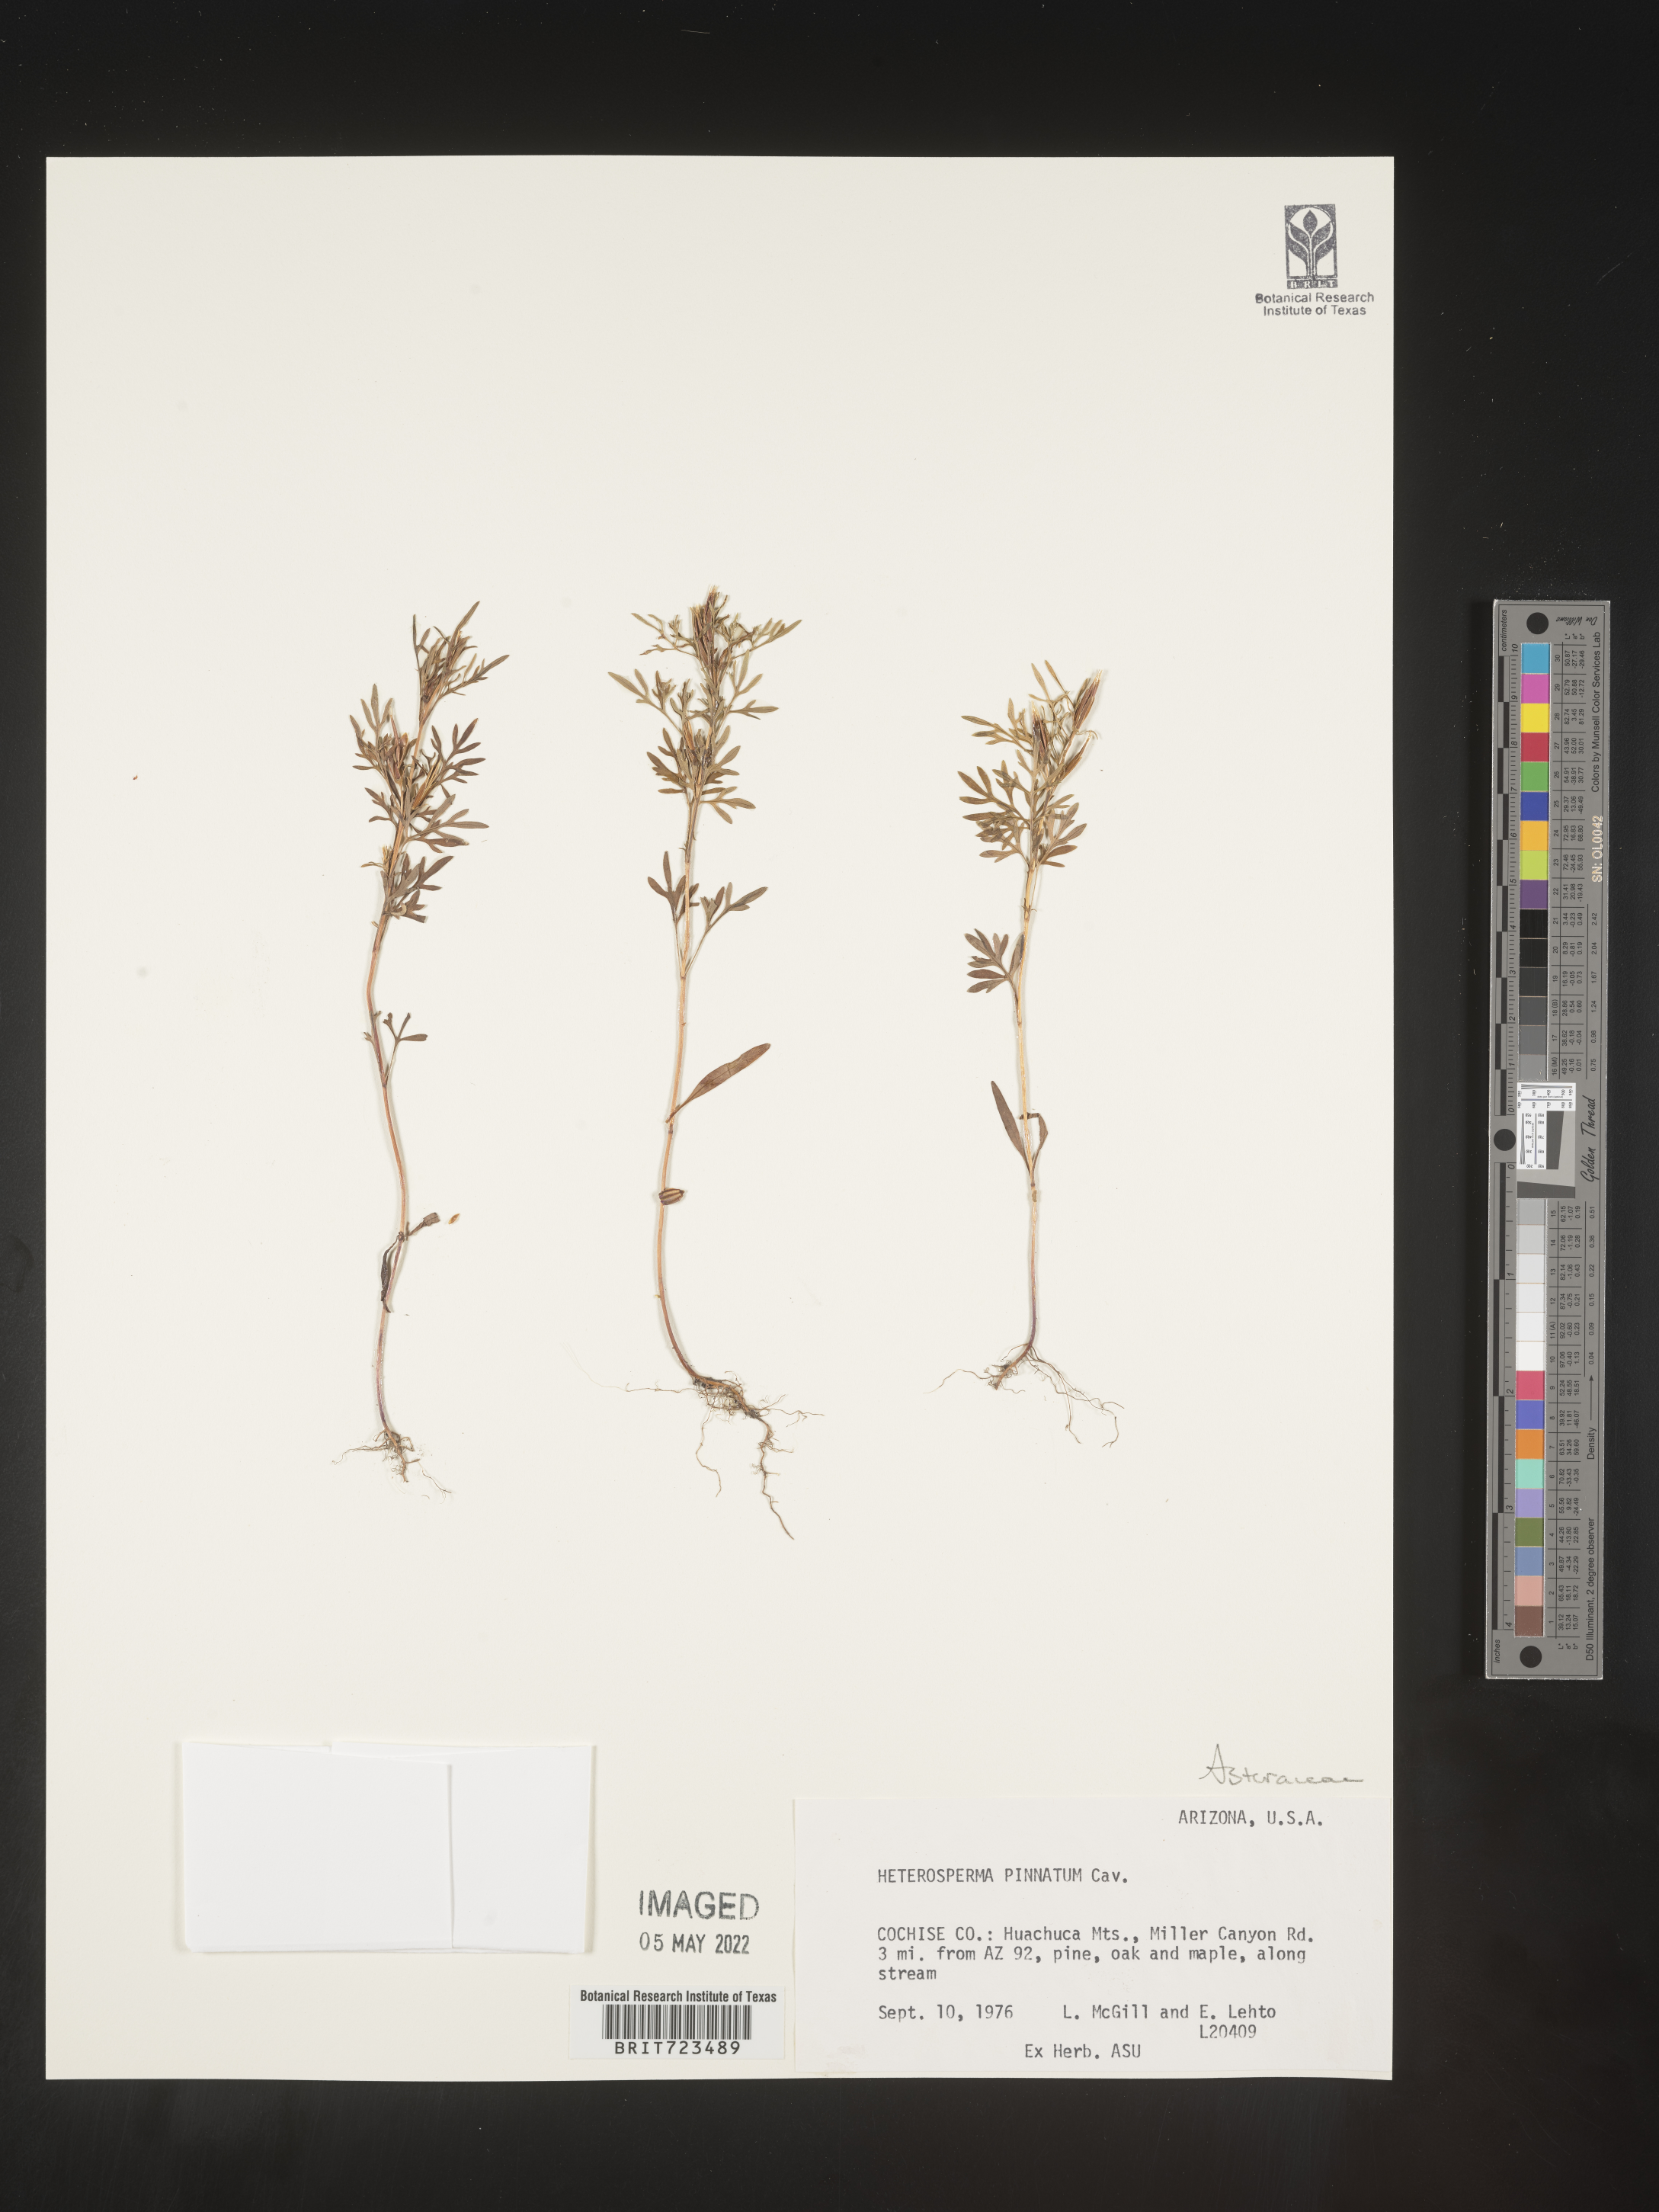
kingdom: Plantae
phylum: Tracheophyta
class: Magnoliopsida
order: Asterales
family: Asteraceae
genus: Heterosperma
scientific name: Heterosperma
